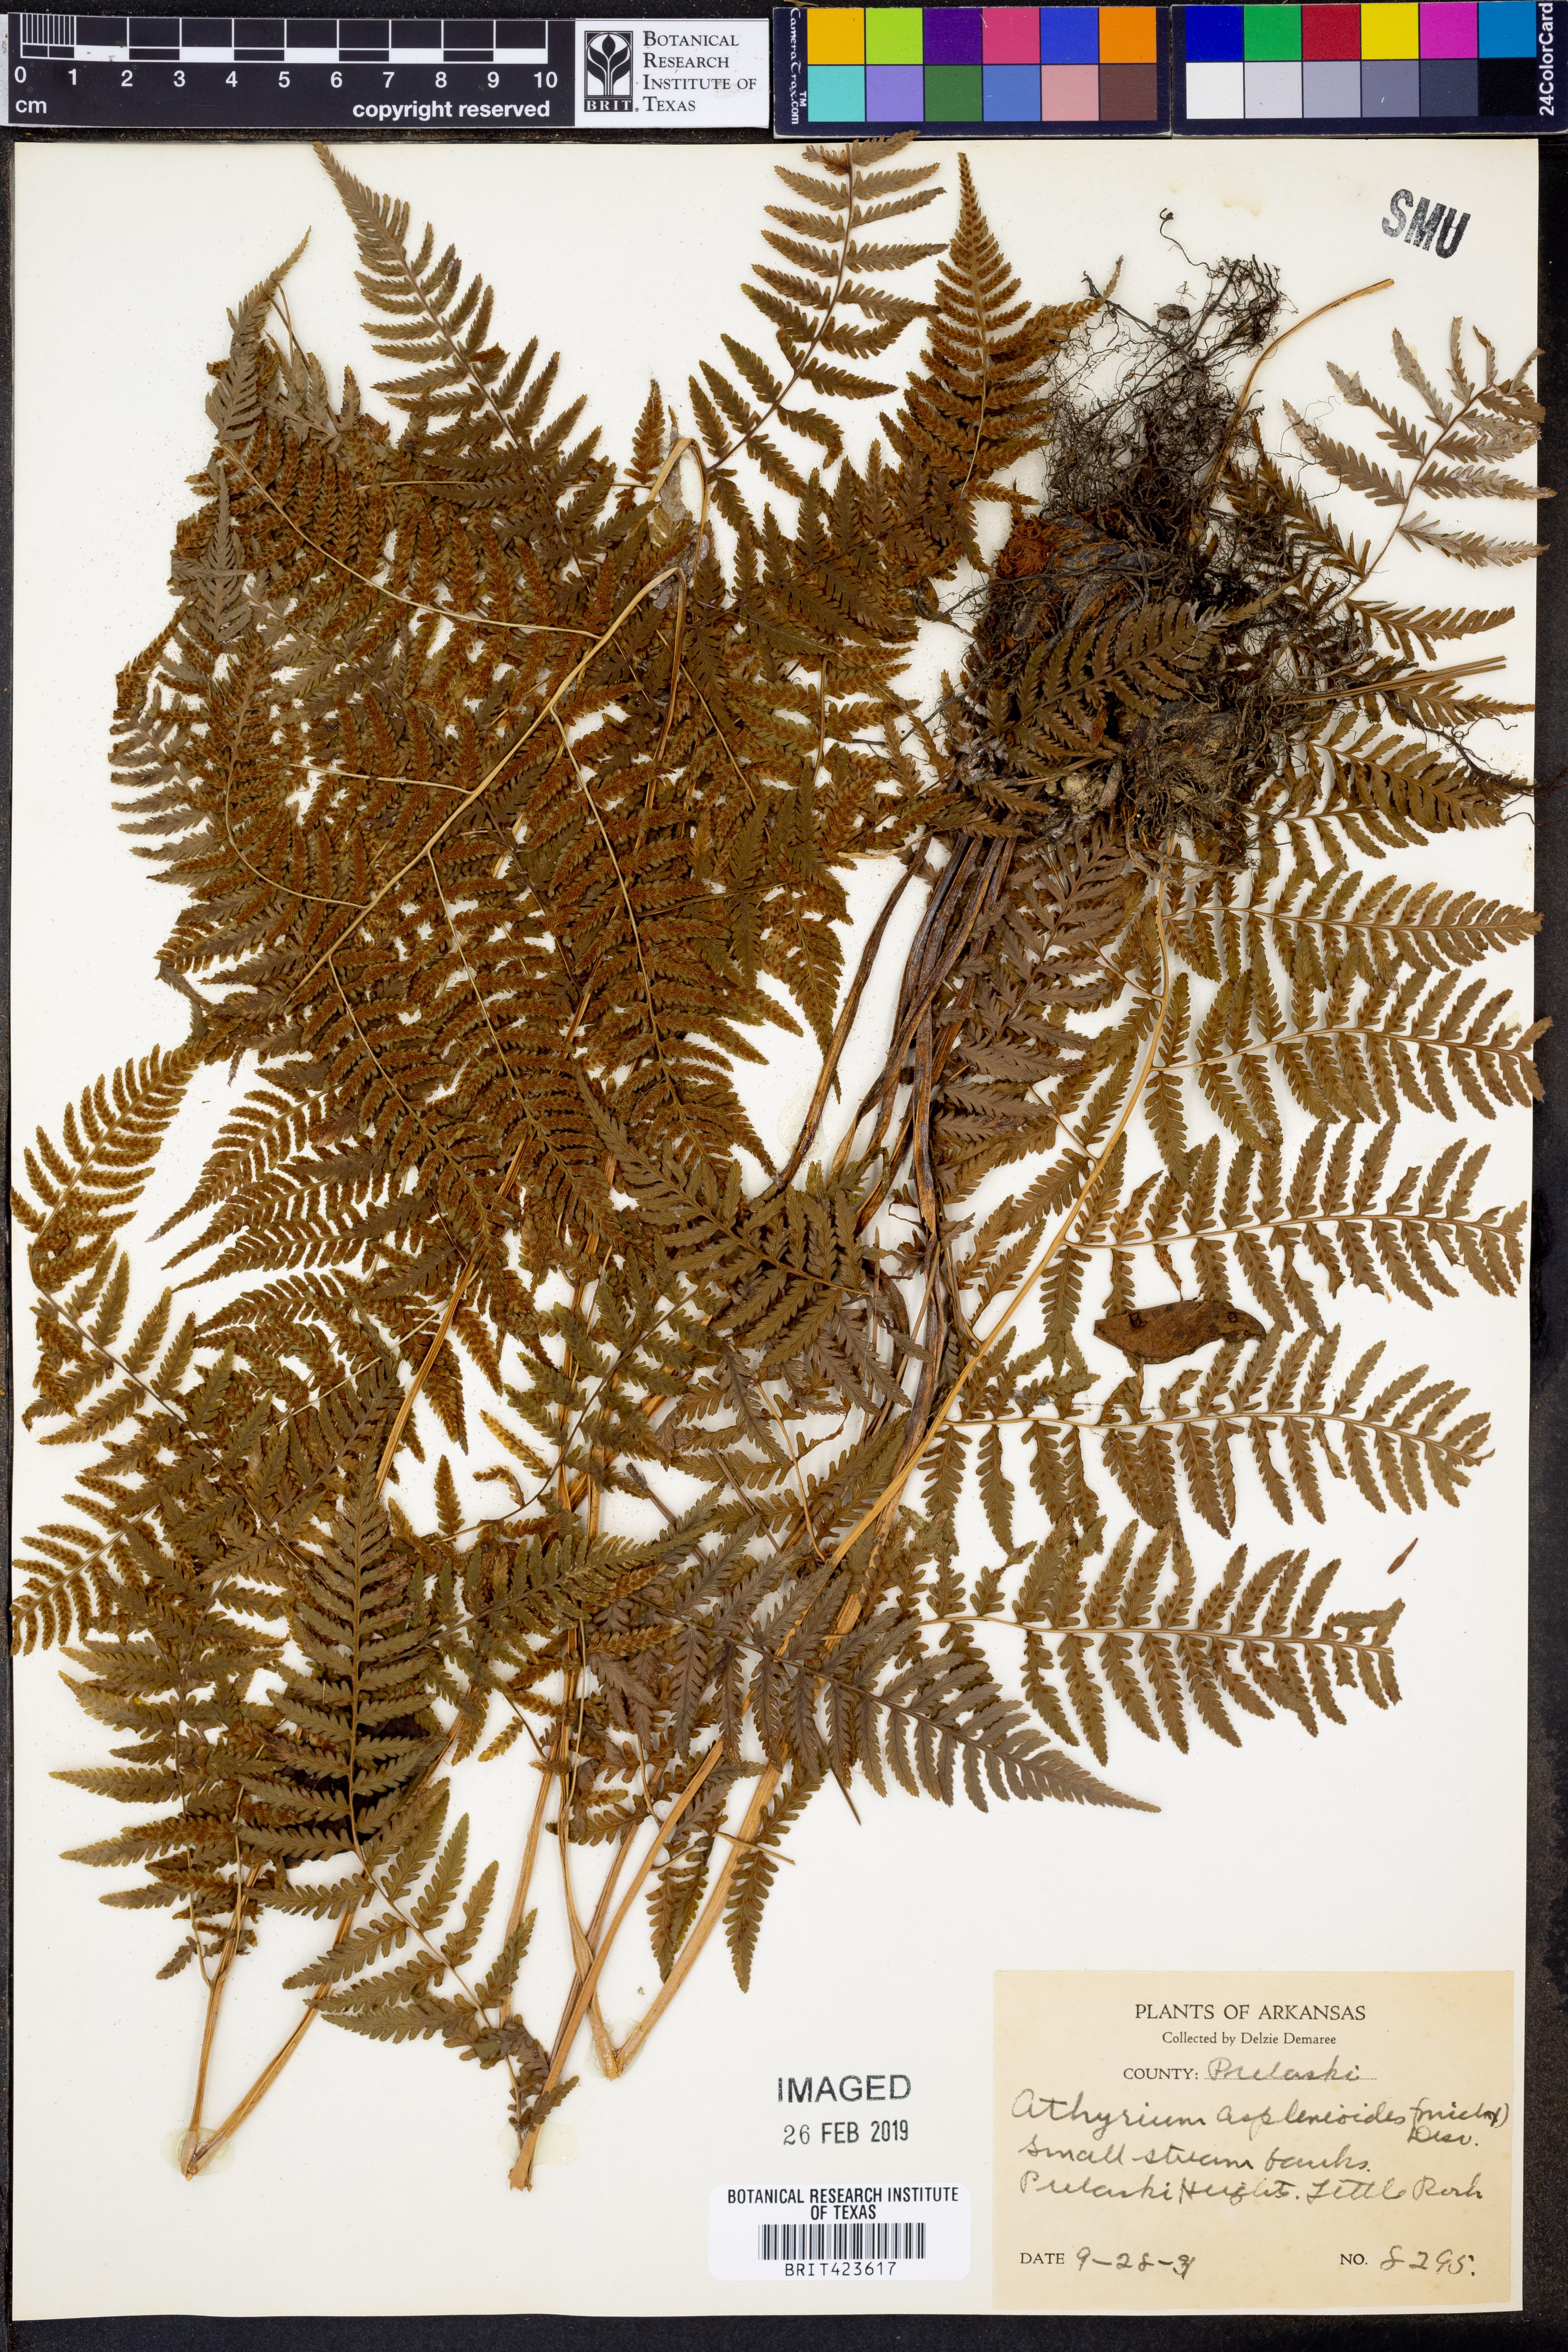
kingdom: Plantae
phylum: Tracheophyta
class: Polypodiopsida
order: Polypodiales
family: Athyriaceae
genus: Athyrium
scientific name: Athyrium asplenioides
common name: Southern lady fern
